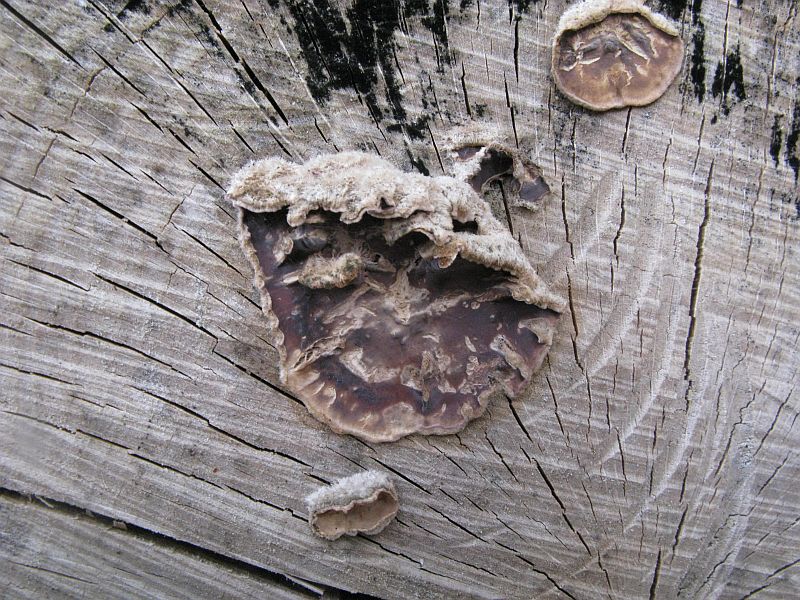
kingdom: Fungi
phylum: Basidiomycota
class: Agaricomycetes
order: Agaricales
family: Cyphellaceae
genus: Chondrostereum
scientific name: Chondrostereum purpureum
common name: purpurlædersvamp
